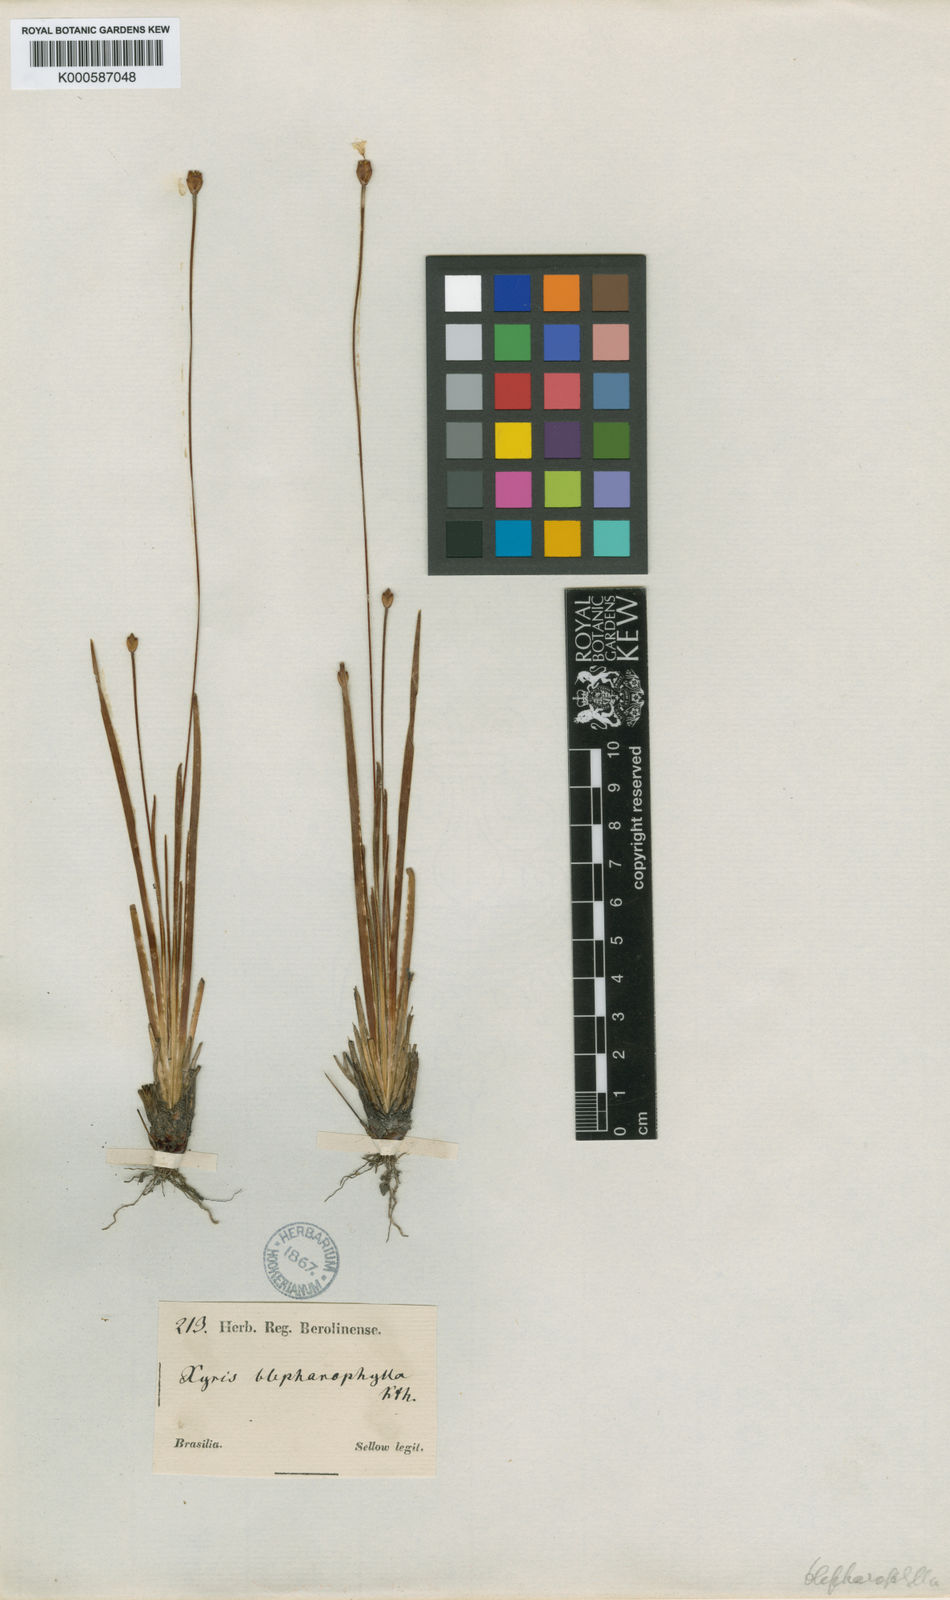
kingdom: Plantae
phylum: Tracheophyta
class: Liliopsida
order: Poales
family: Xyridaceae
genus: Xyris
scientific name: Xyris pterygoblephara
